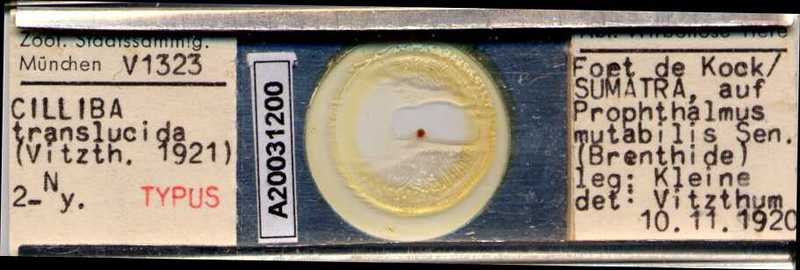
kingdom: Animalia
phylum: Arthropoda
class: Arachnida
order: Mesostigmata
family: Uropodidae
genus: Cilliba
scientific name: Cilliba
